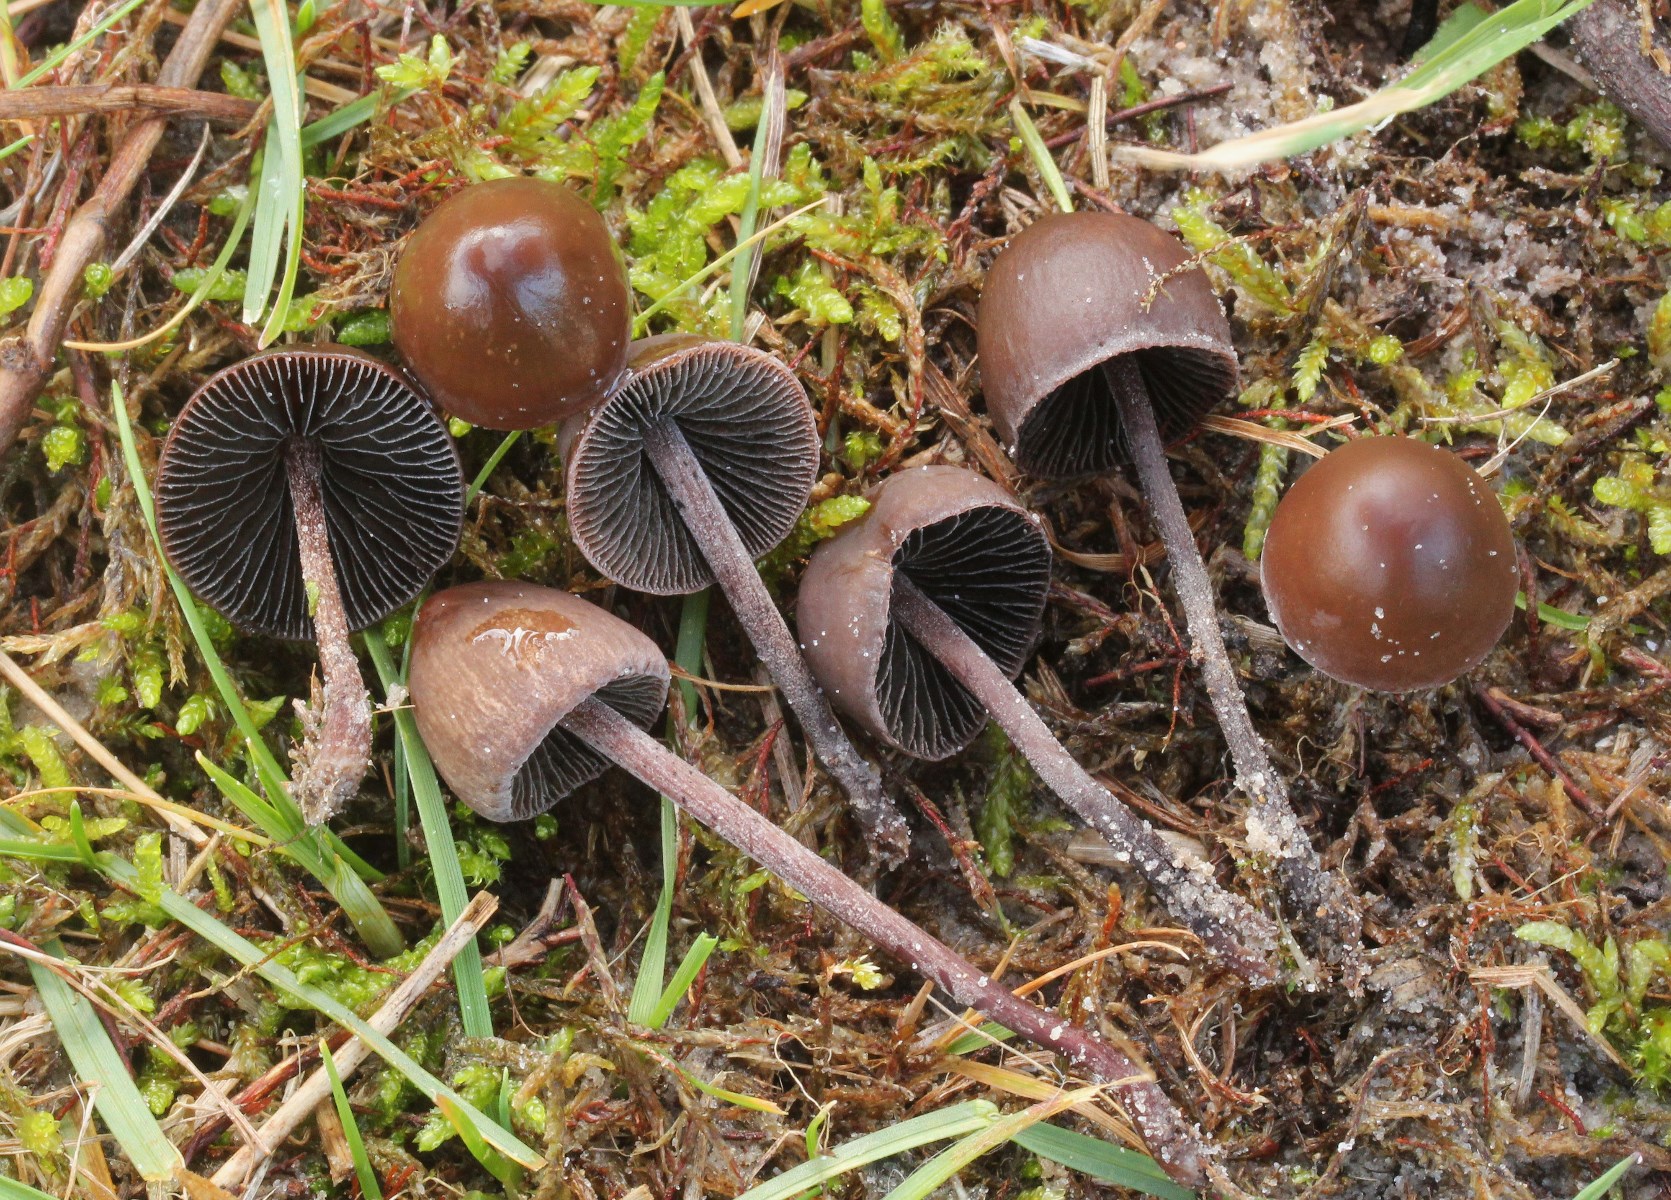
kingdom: Fungi
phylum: Basidiomycota
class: Agaricomycetes
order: Agaricales
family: Bolbitiaceae
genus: Panaeolus
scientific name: Panaeolus acuminatus
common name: høj glanshat
